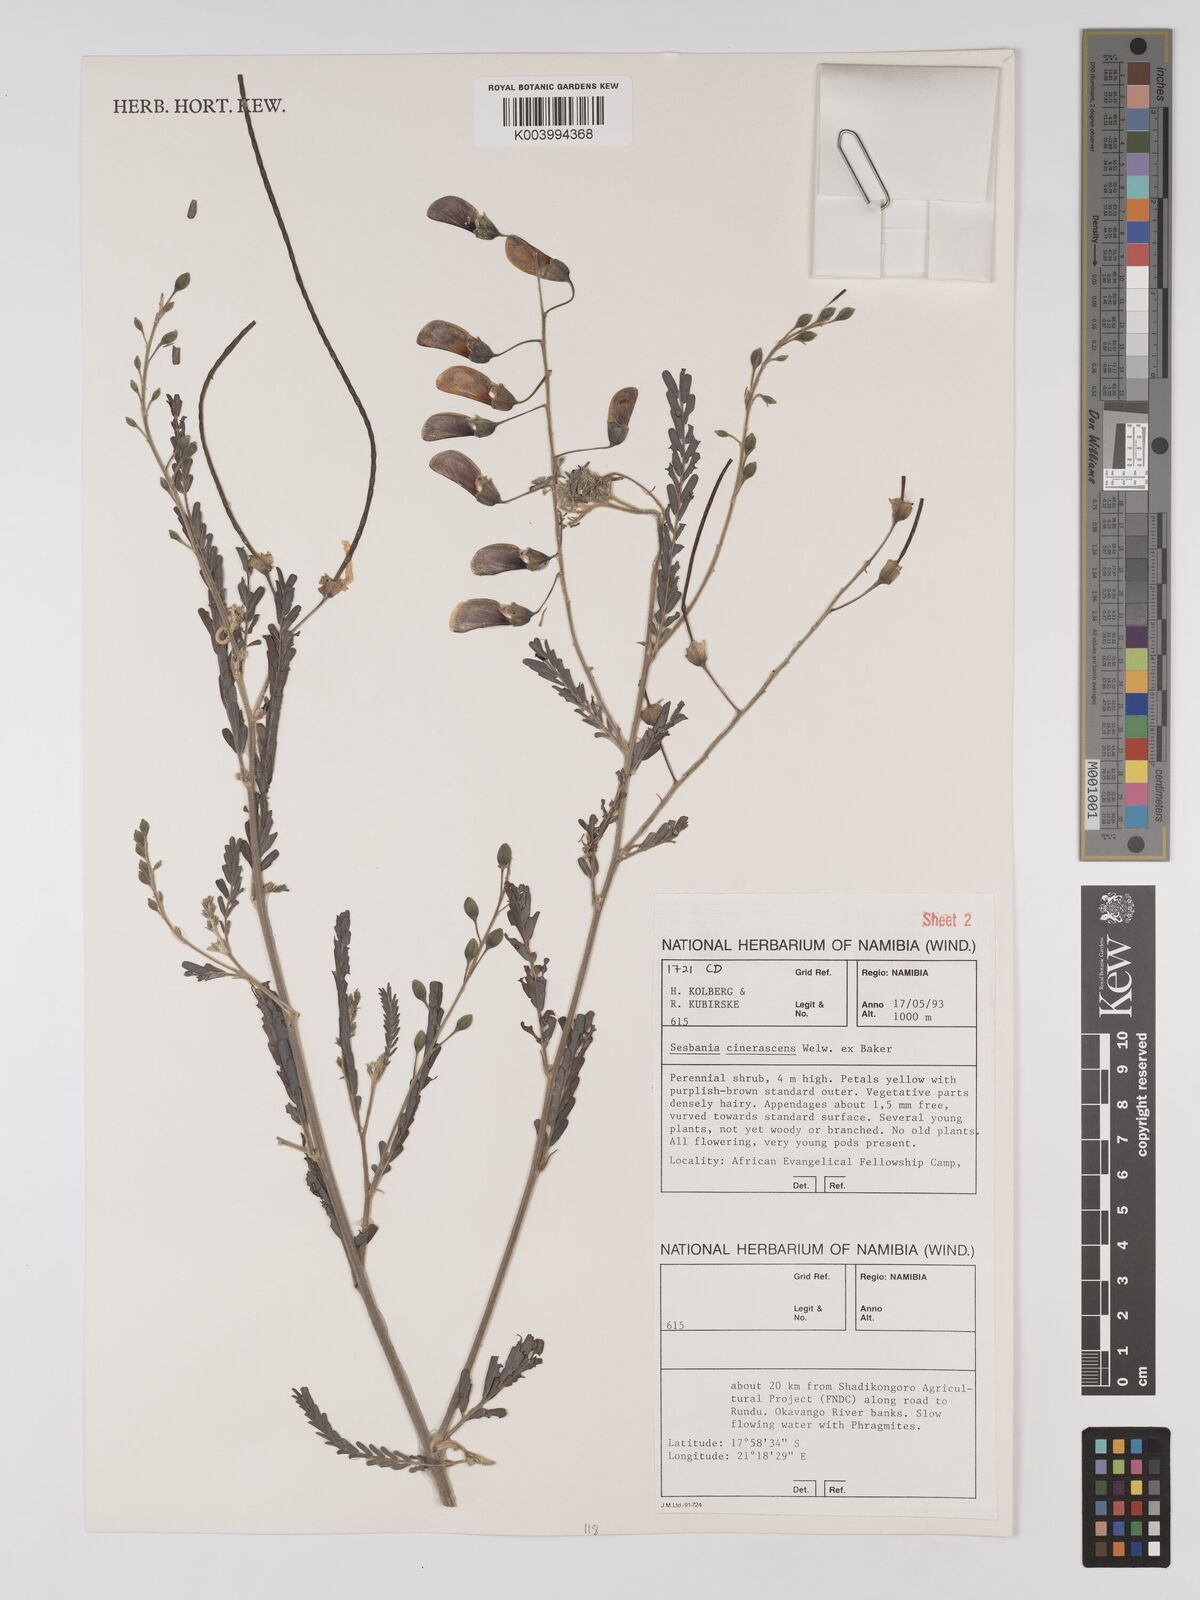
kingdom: Plantae
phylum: Tracheophyta
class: Magnoliopsida
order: Fabales
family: Fabaceae
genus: Sesbania
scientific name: Sesbania cinerascens
